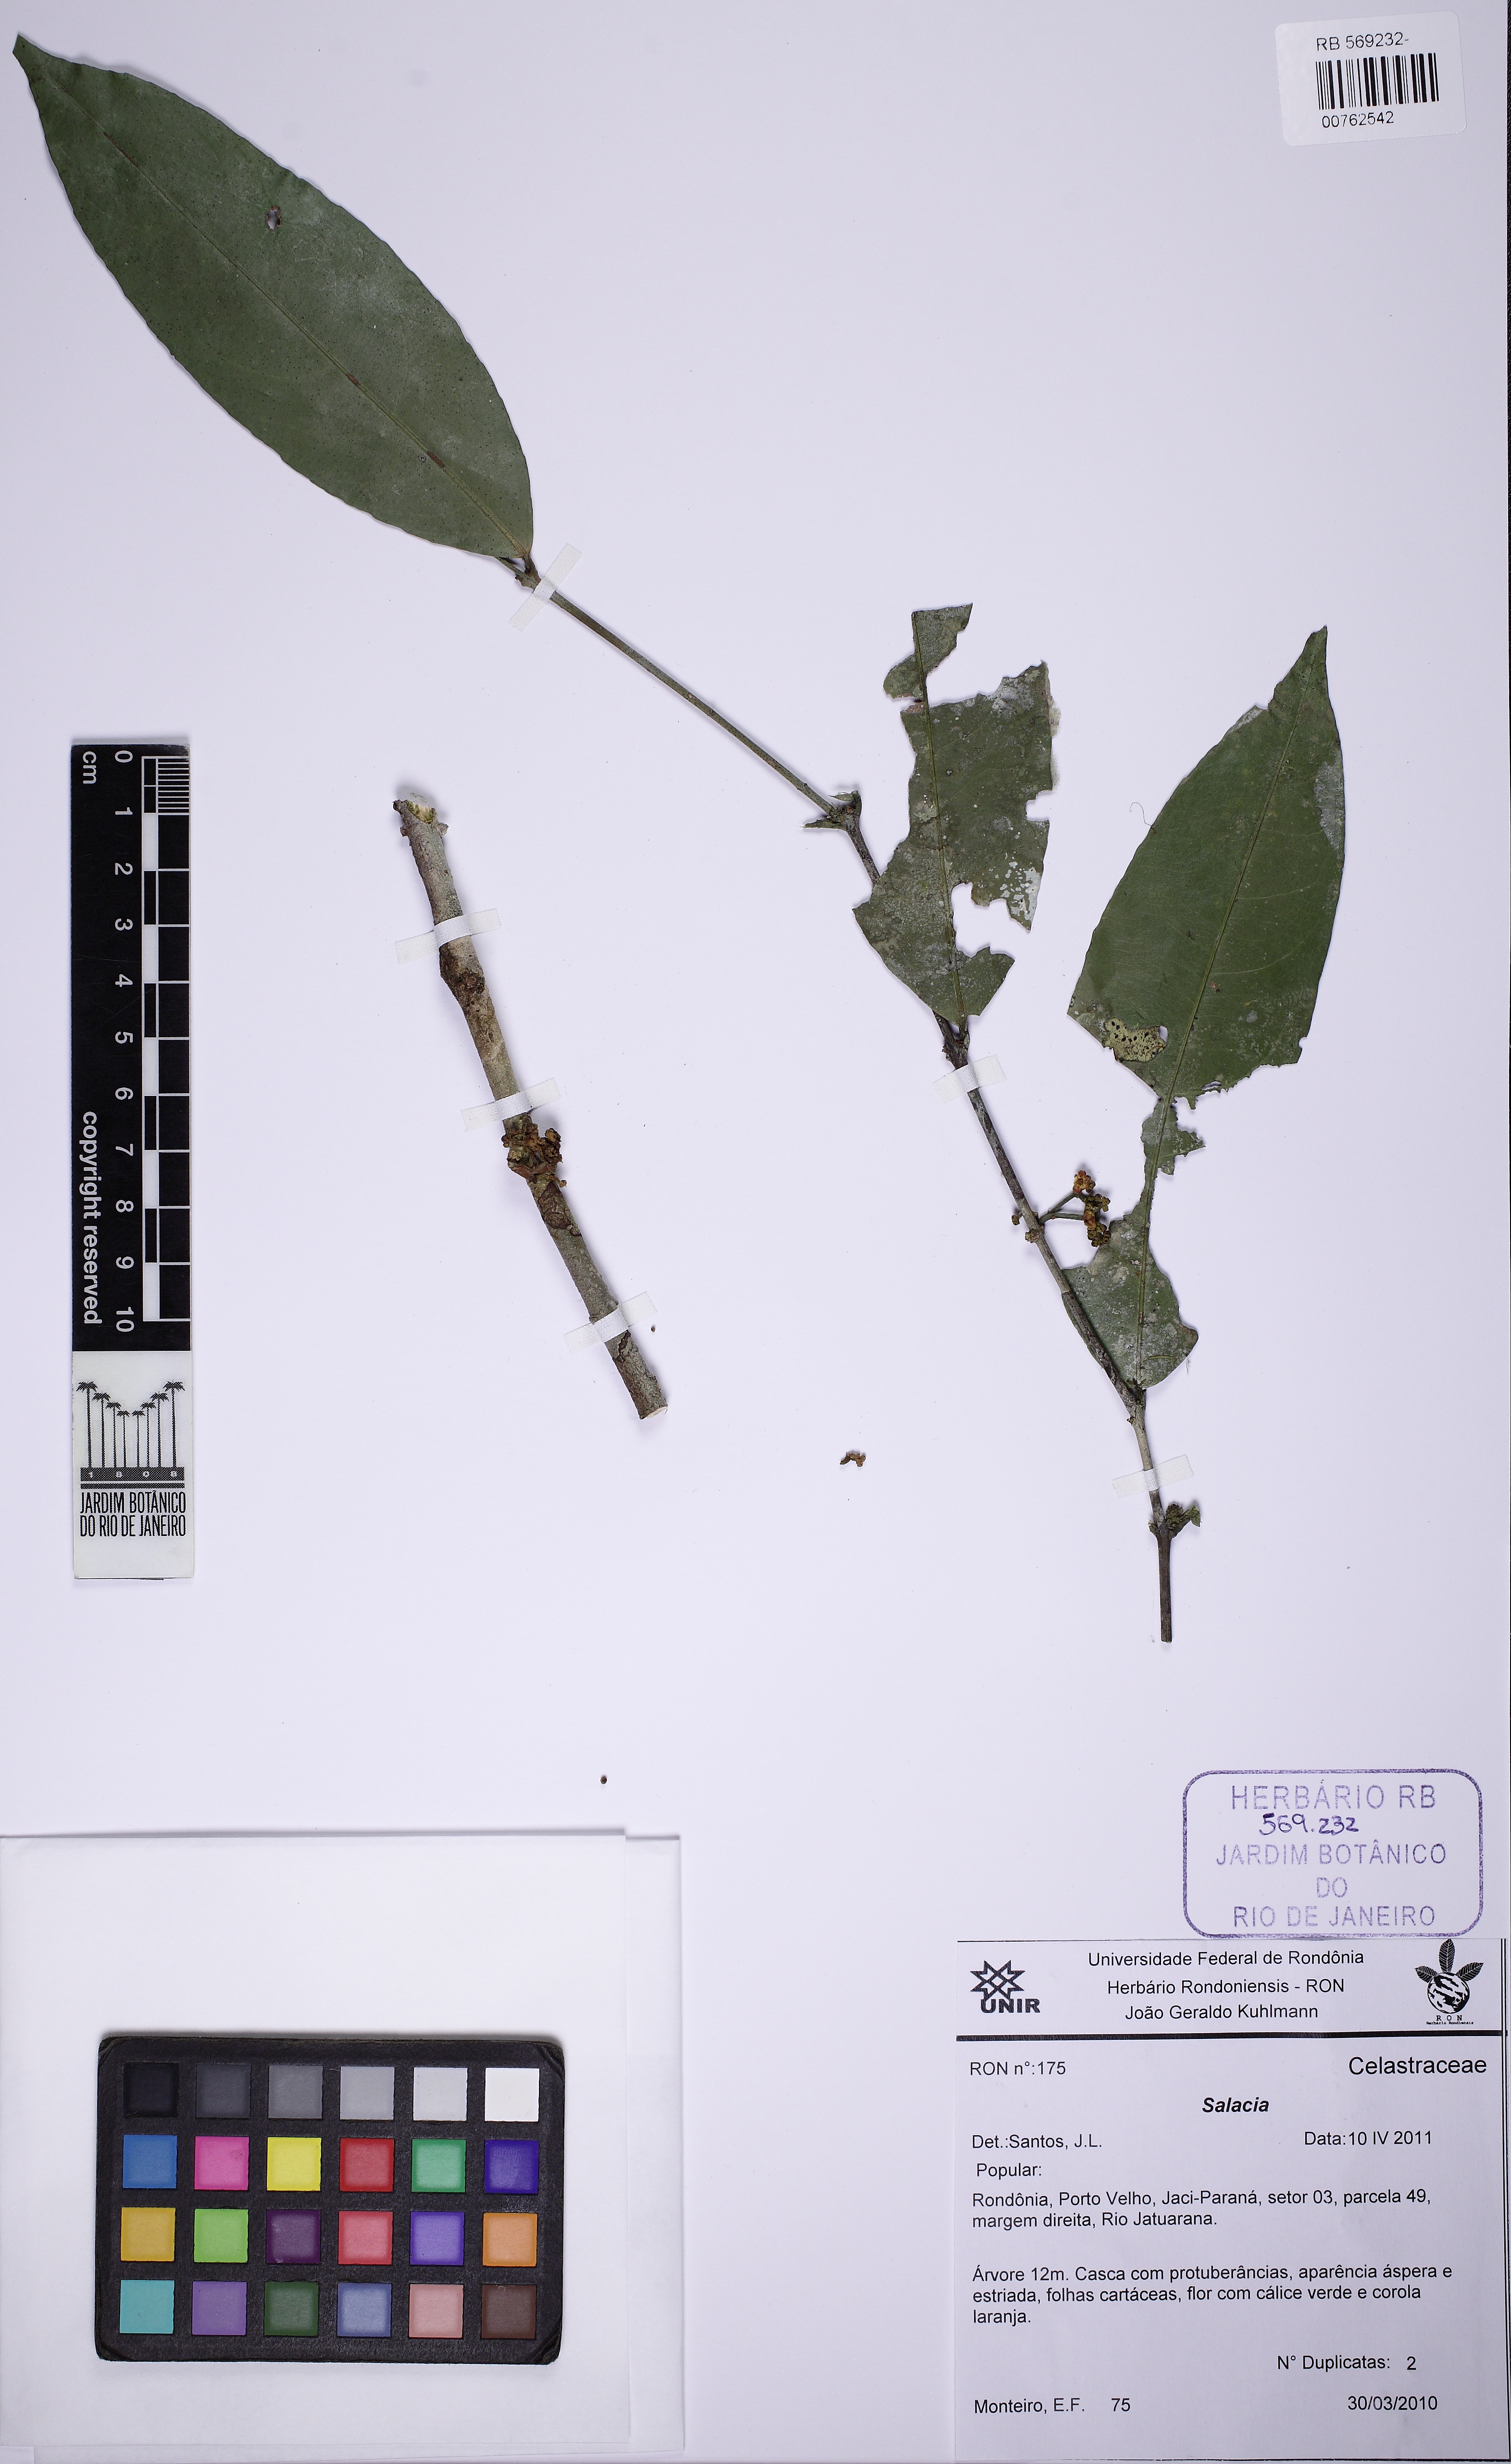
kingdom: Plantae
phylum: Tracheophyta
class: Magnoliopsida
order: Celastrales
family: Celastraceae
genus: Salacia
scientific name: Salacia
